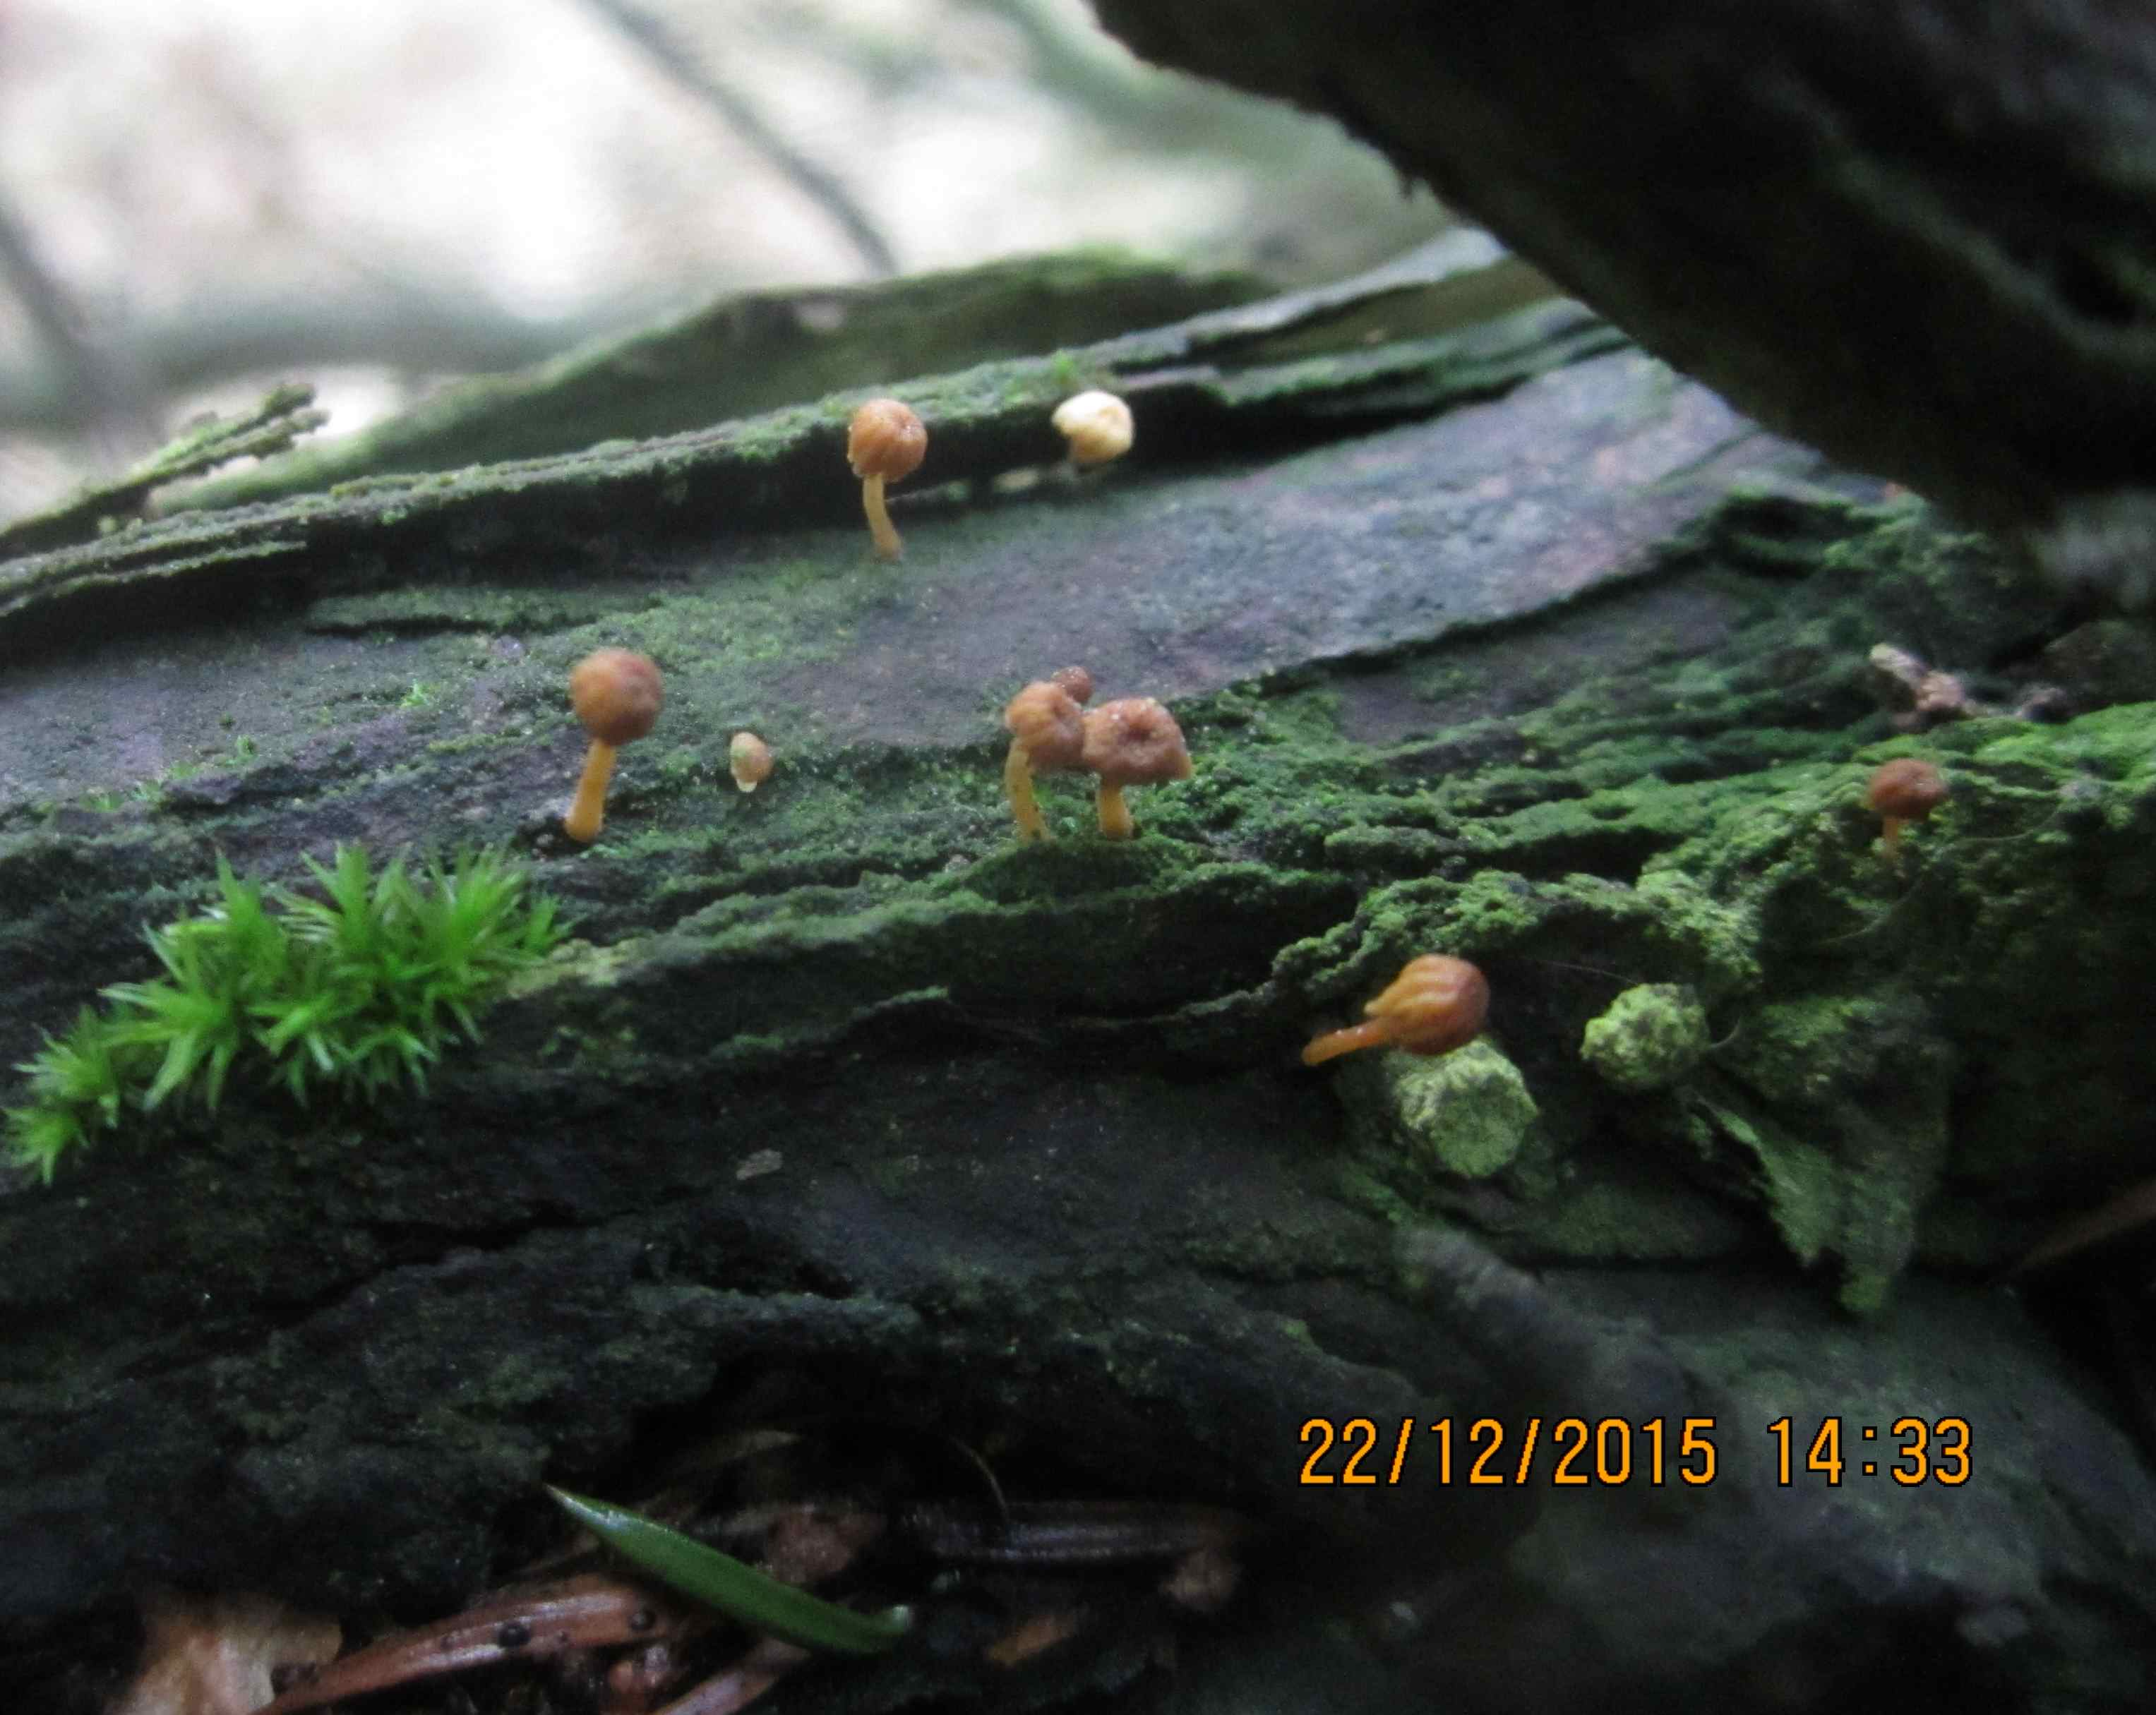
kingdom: Fungi
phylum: Basidiomycota
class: Agaricomycetes
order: Agaricales
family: Mycenaceae
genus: Mycena
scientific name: Mycena juniperina
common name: ene-Huesvamp
